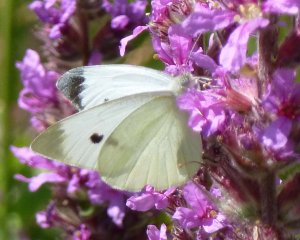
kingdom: Animalia
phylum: Arthropoda
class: Insecta
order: Lepidoptera
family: Pieridae
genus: Pieris
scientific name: Pieris rapae
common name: Cabbage White
